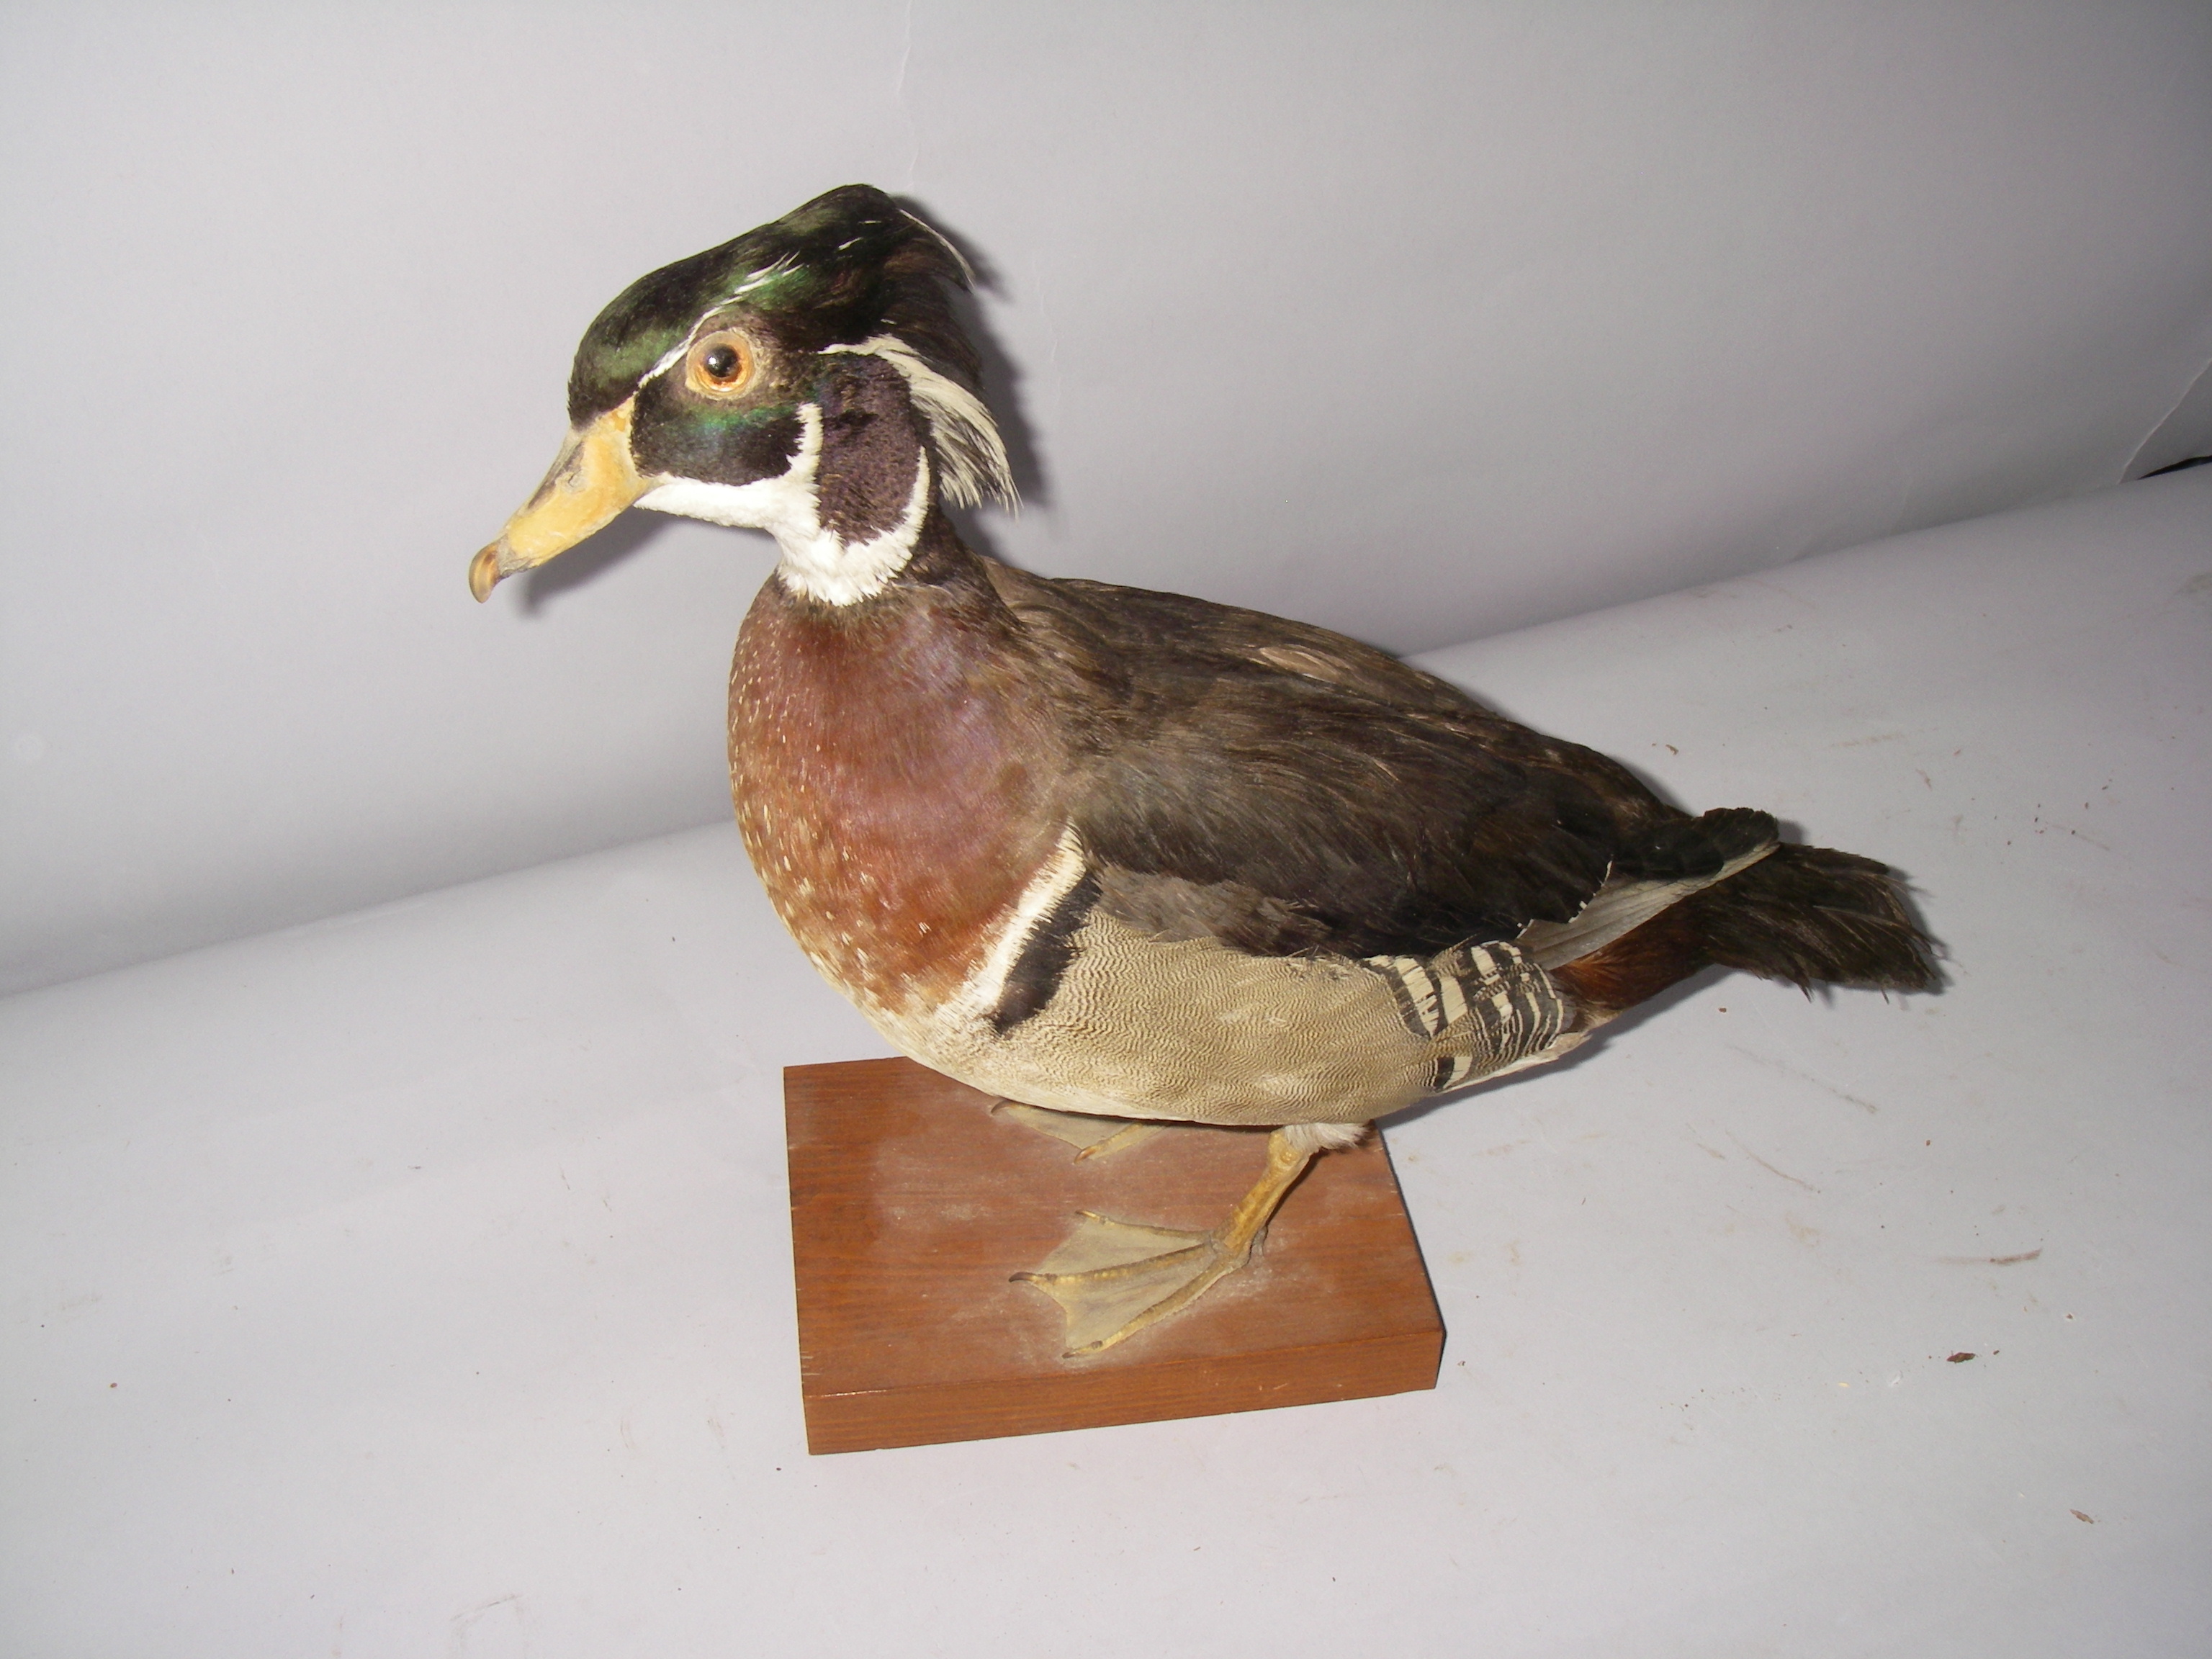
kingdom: Animalia
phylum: Chordata
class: Aves
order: Anseriformes
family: Anatidae
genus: Aix
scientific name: Aix sponsa
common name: Wood duck
